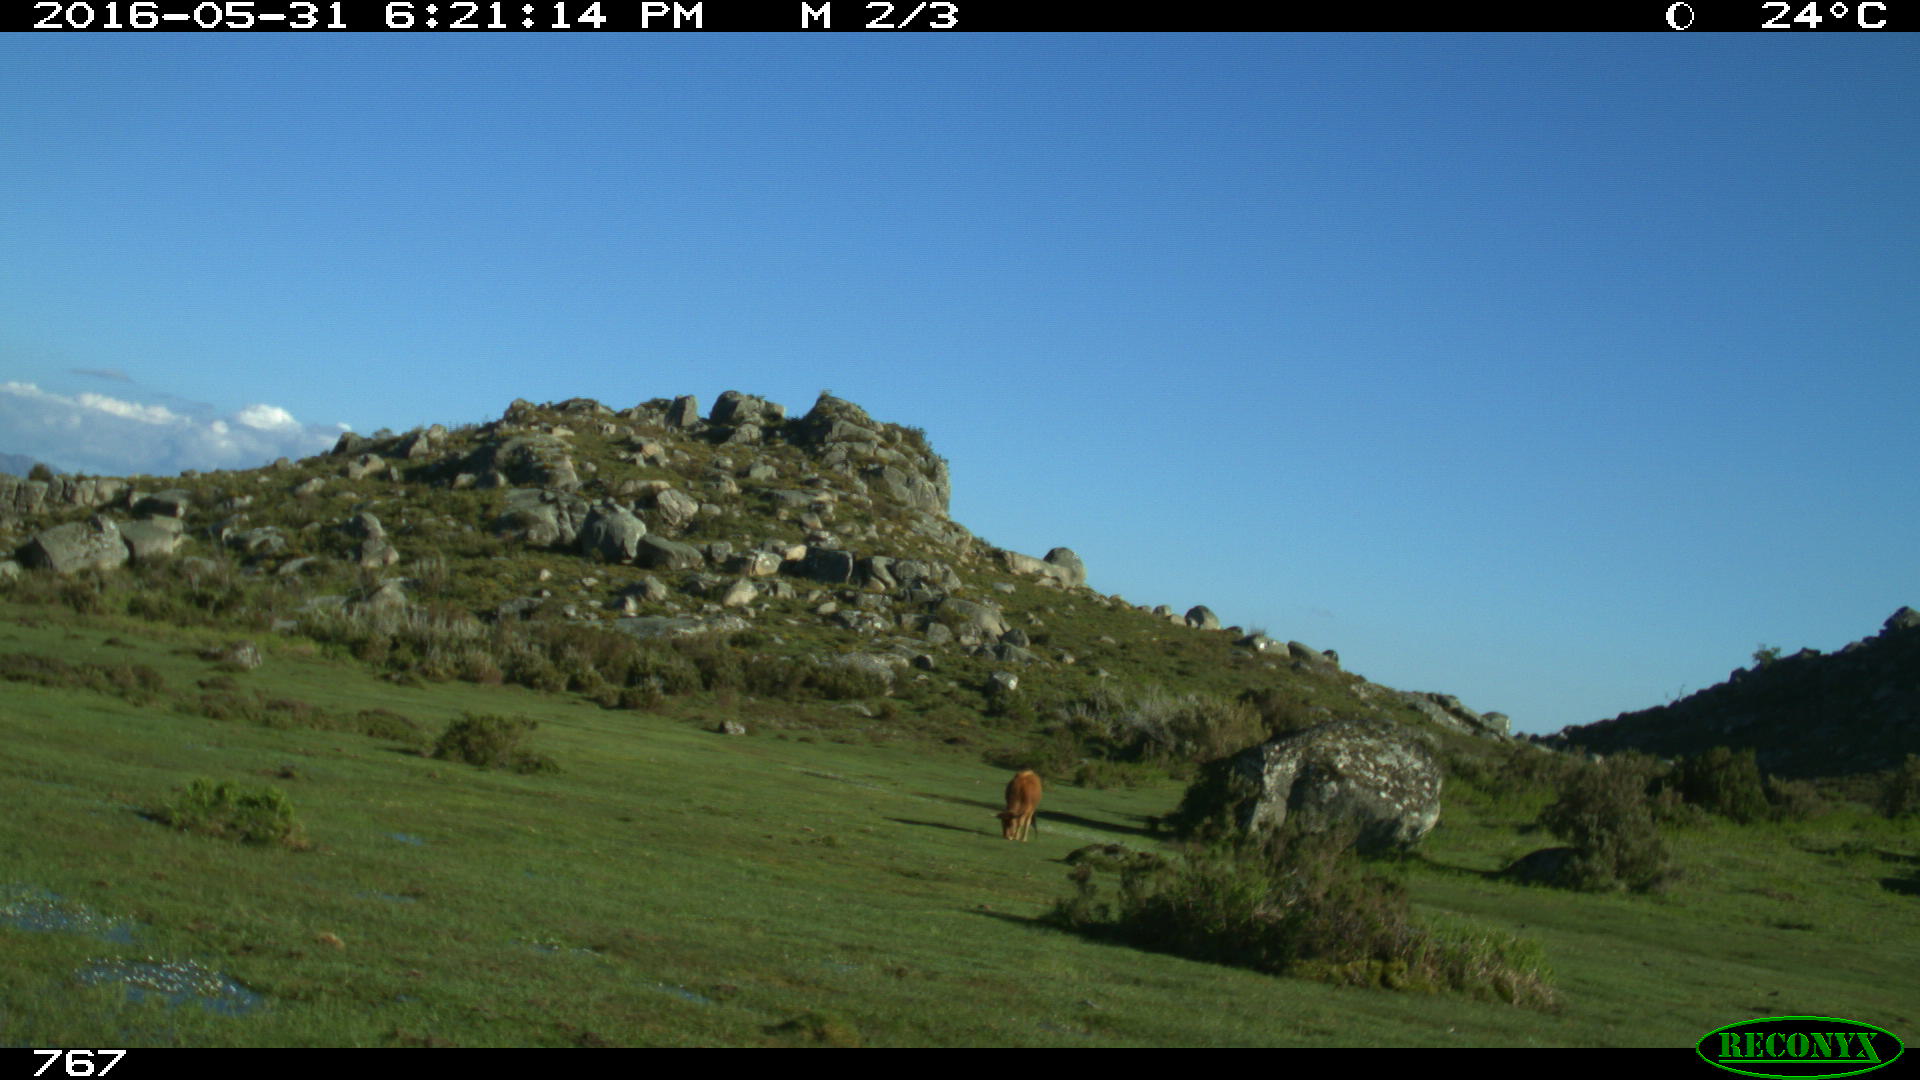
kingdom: Animalia
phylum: Chordata
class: Mammalia
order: Artiodactyla
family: Bovidae
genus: Bos
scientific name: Bos taurus
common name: Domesticated cattle
